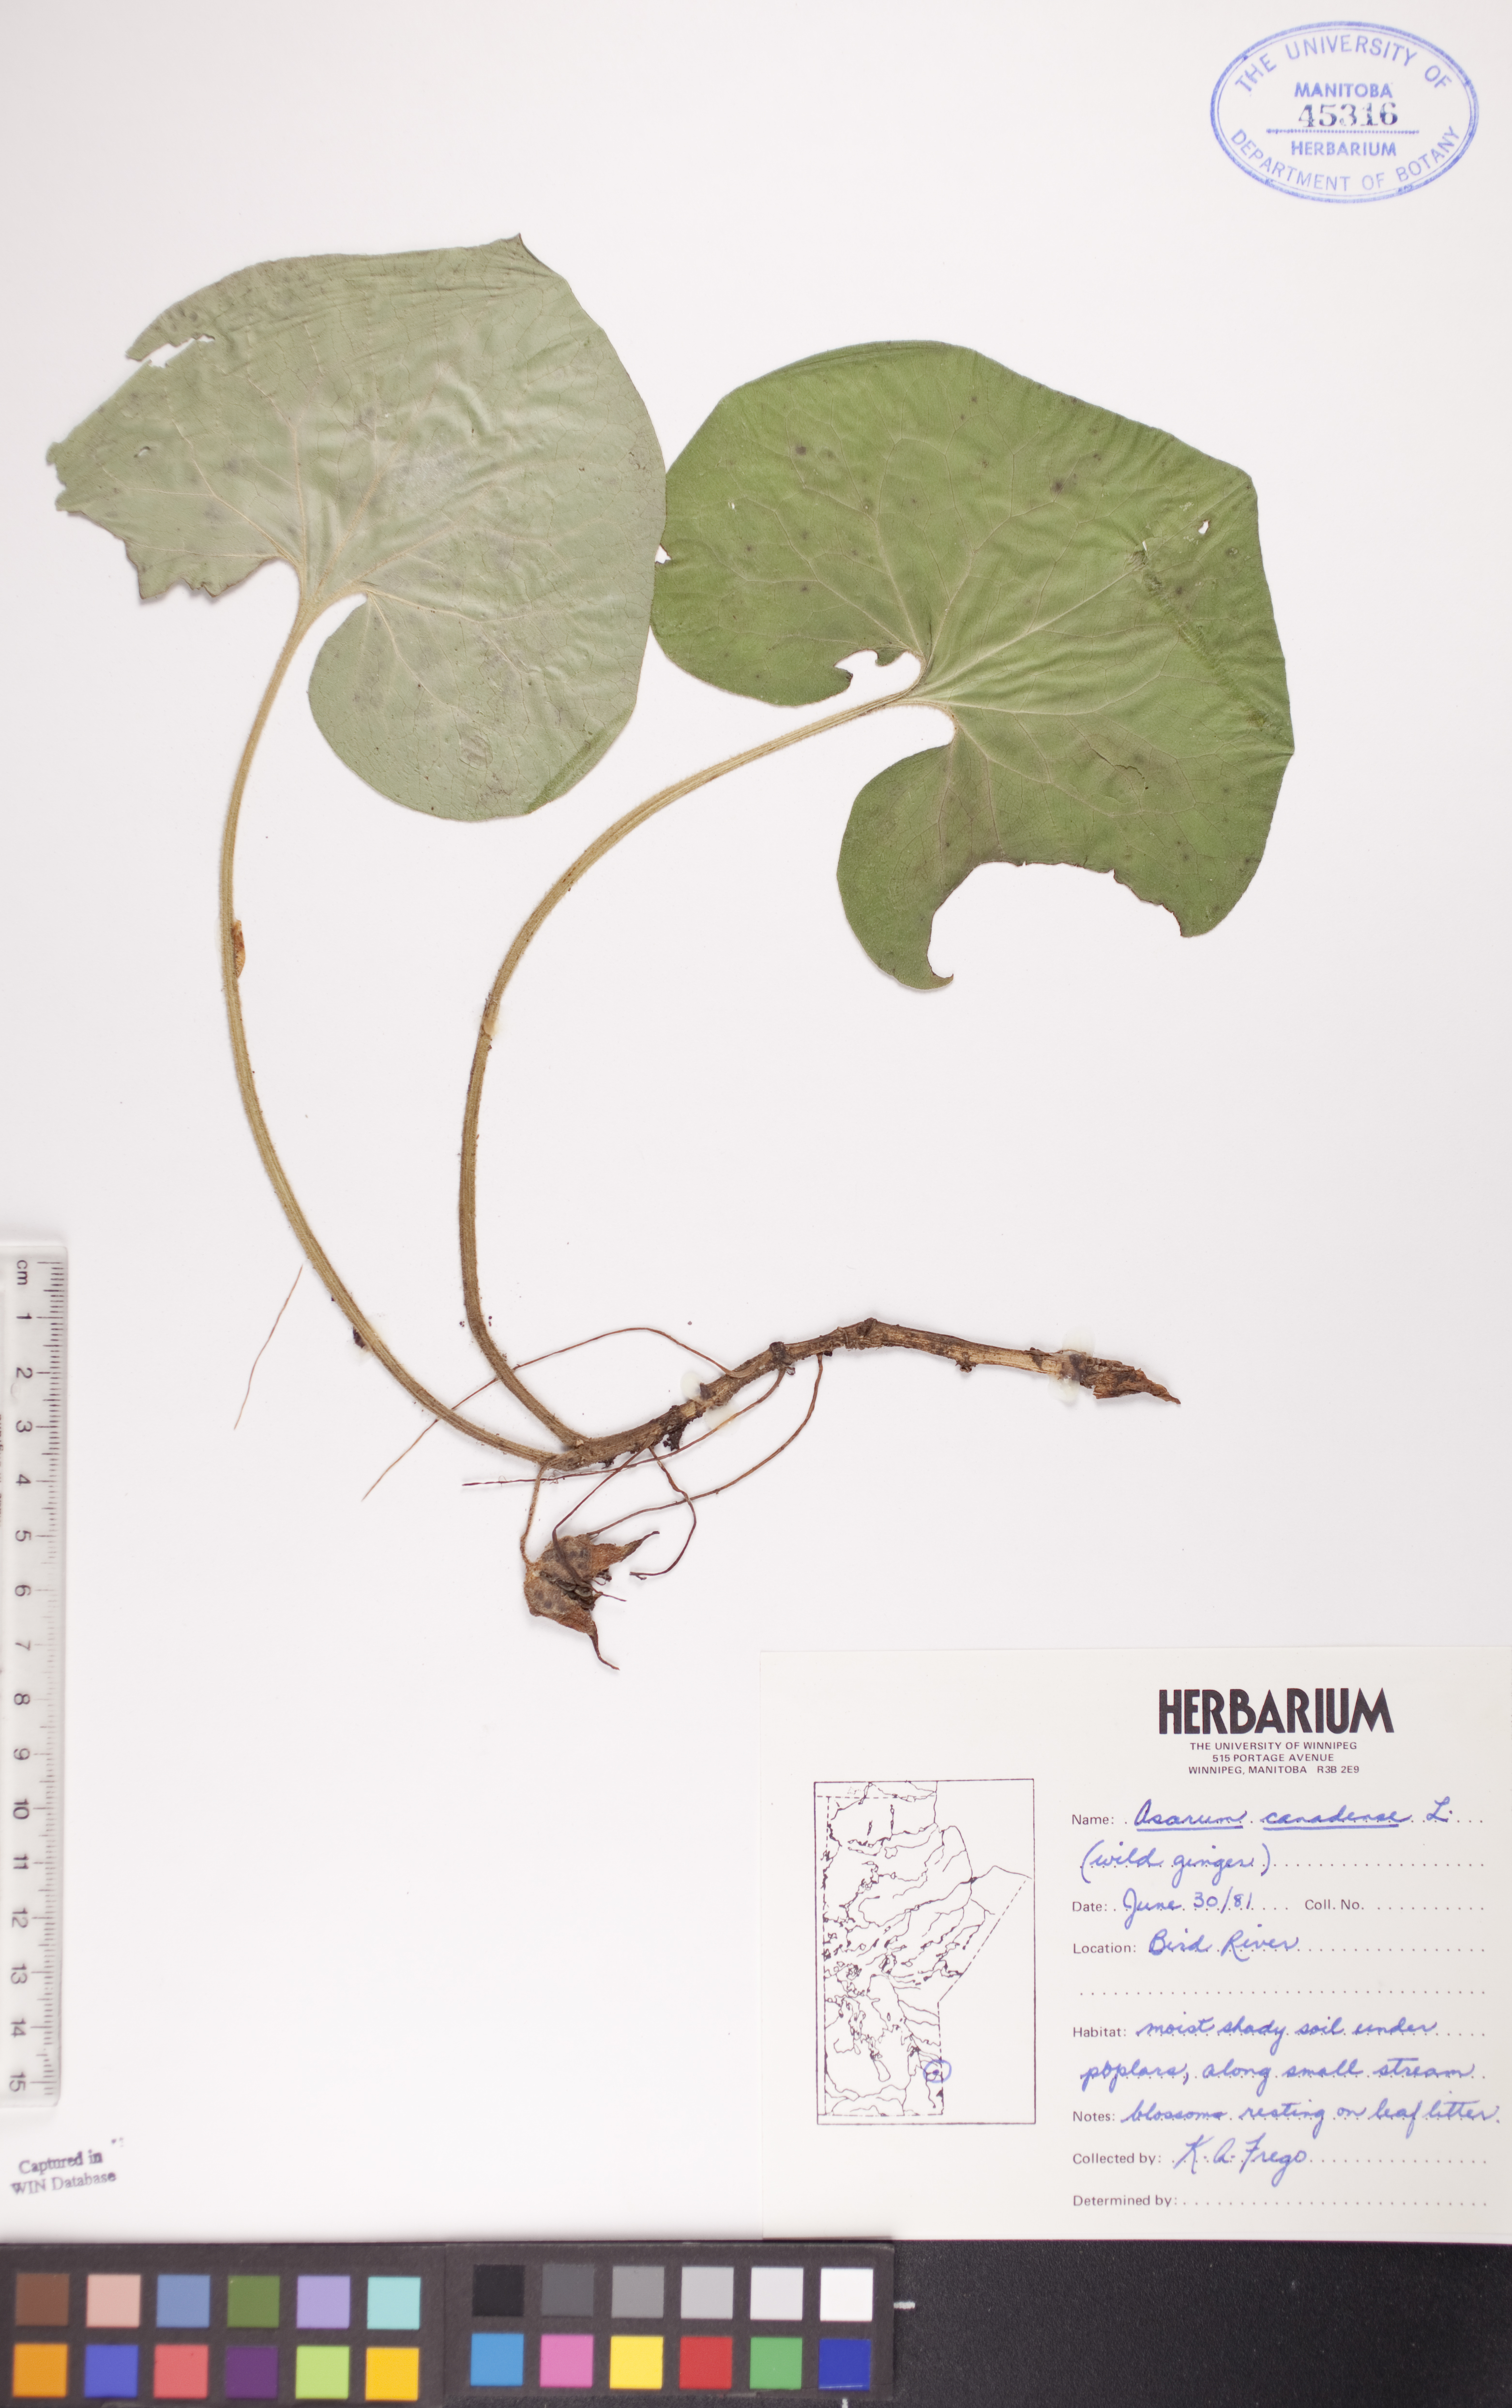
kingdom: Plantae
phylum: Tracheophyta
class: Magnoliopsida
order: Piperales
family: Aristolochiaceae
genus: Asarum
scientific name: Asarum canadense
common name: Wild ginger
